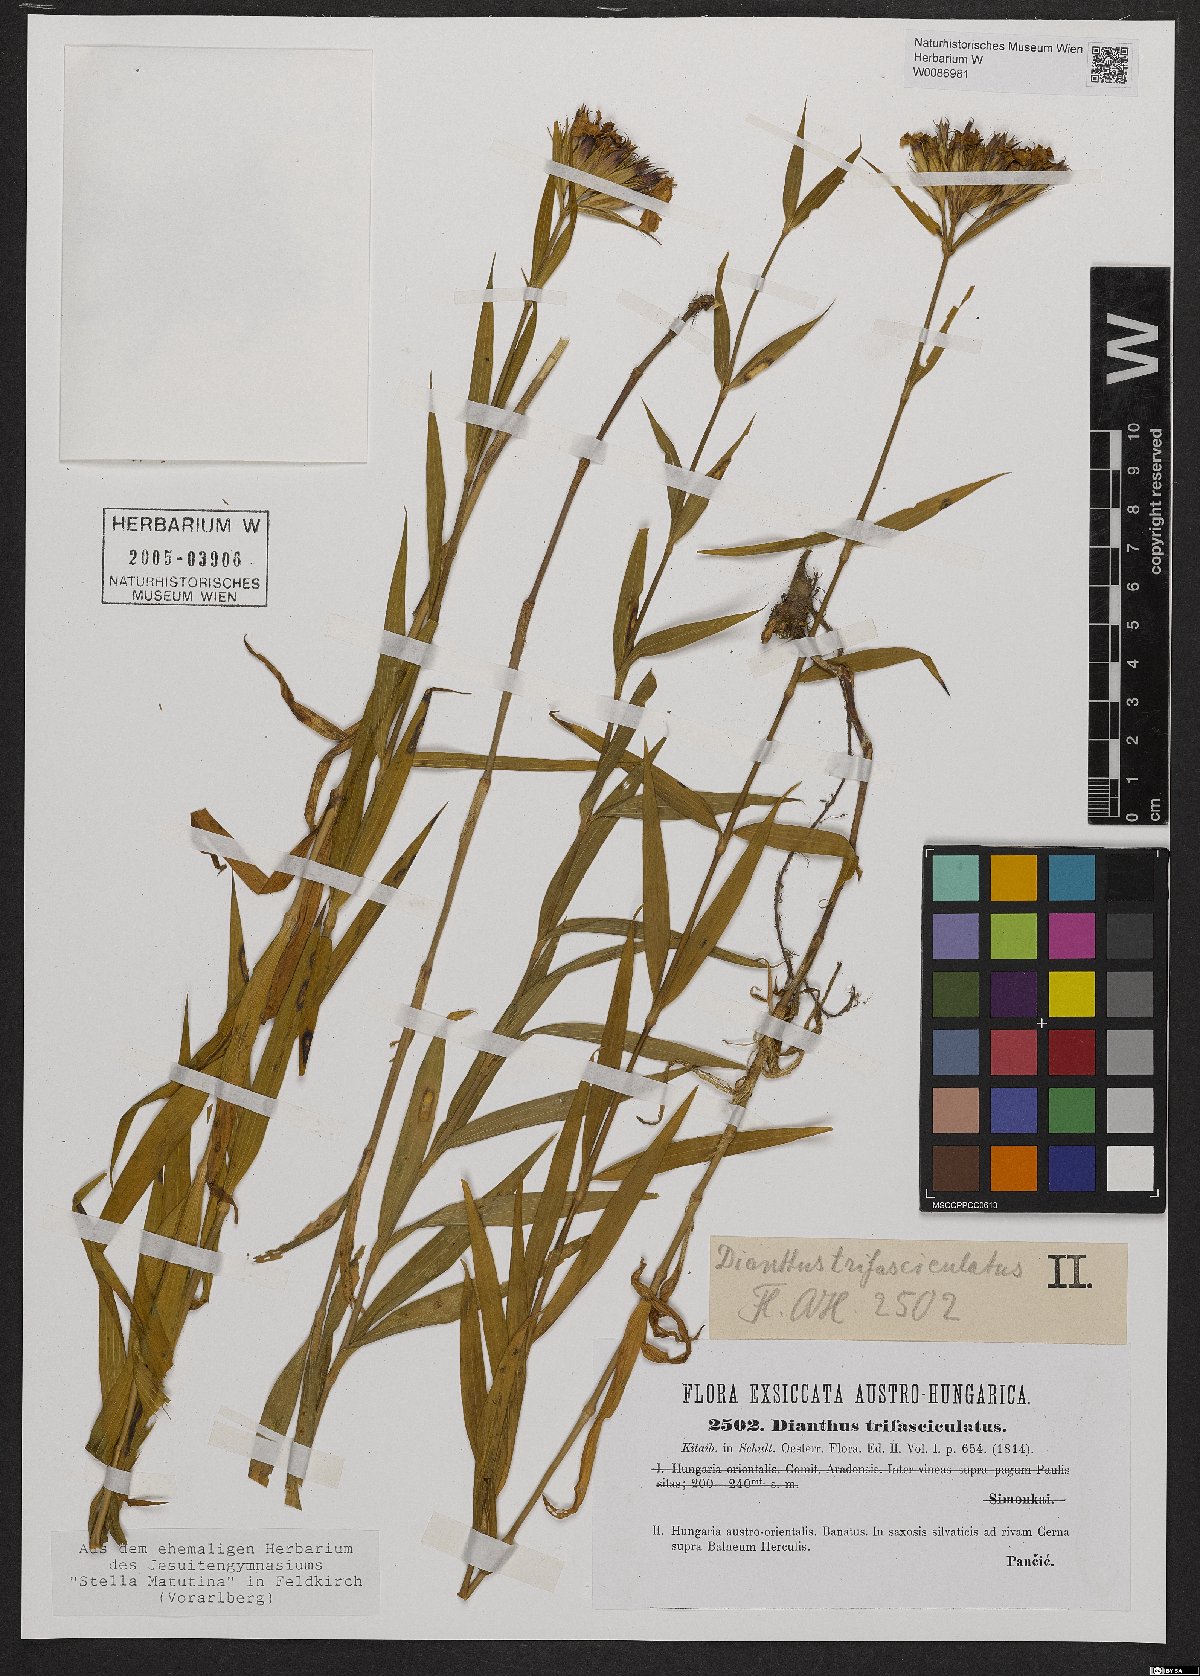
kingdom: Plantae
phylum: Tracheophyta
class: Magnoliopsida
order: Caryophyllales
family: Caryophyllaceae
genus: Dianthus
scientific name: Dianthus trifasciculatus
